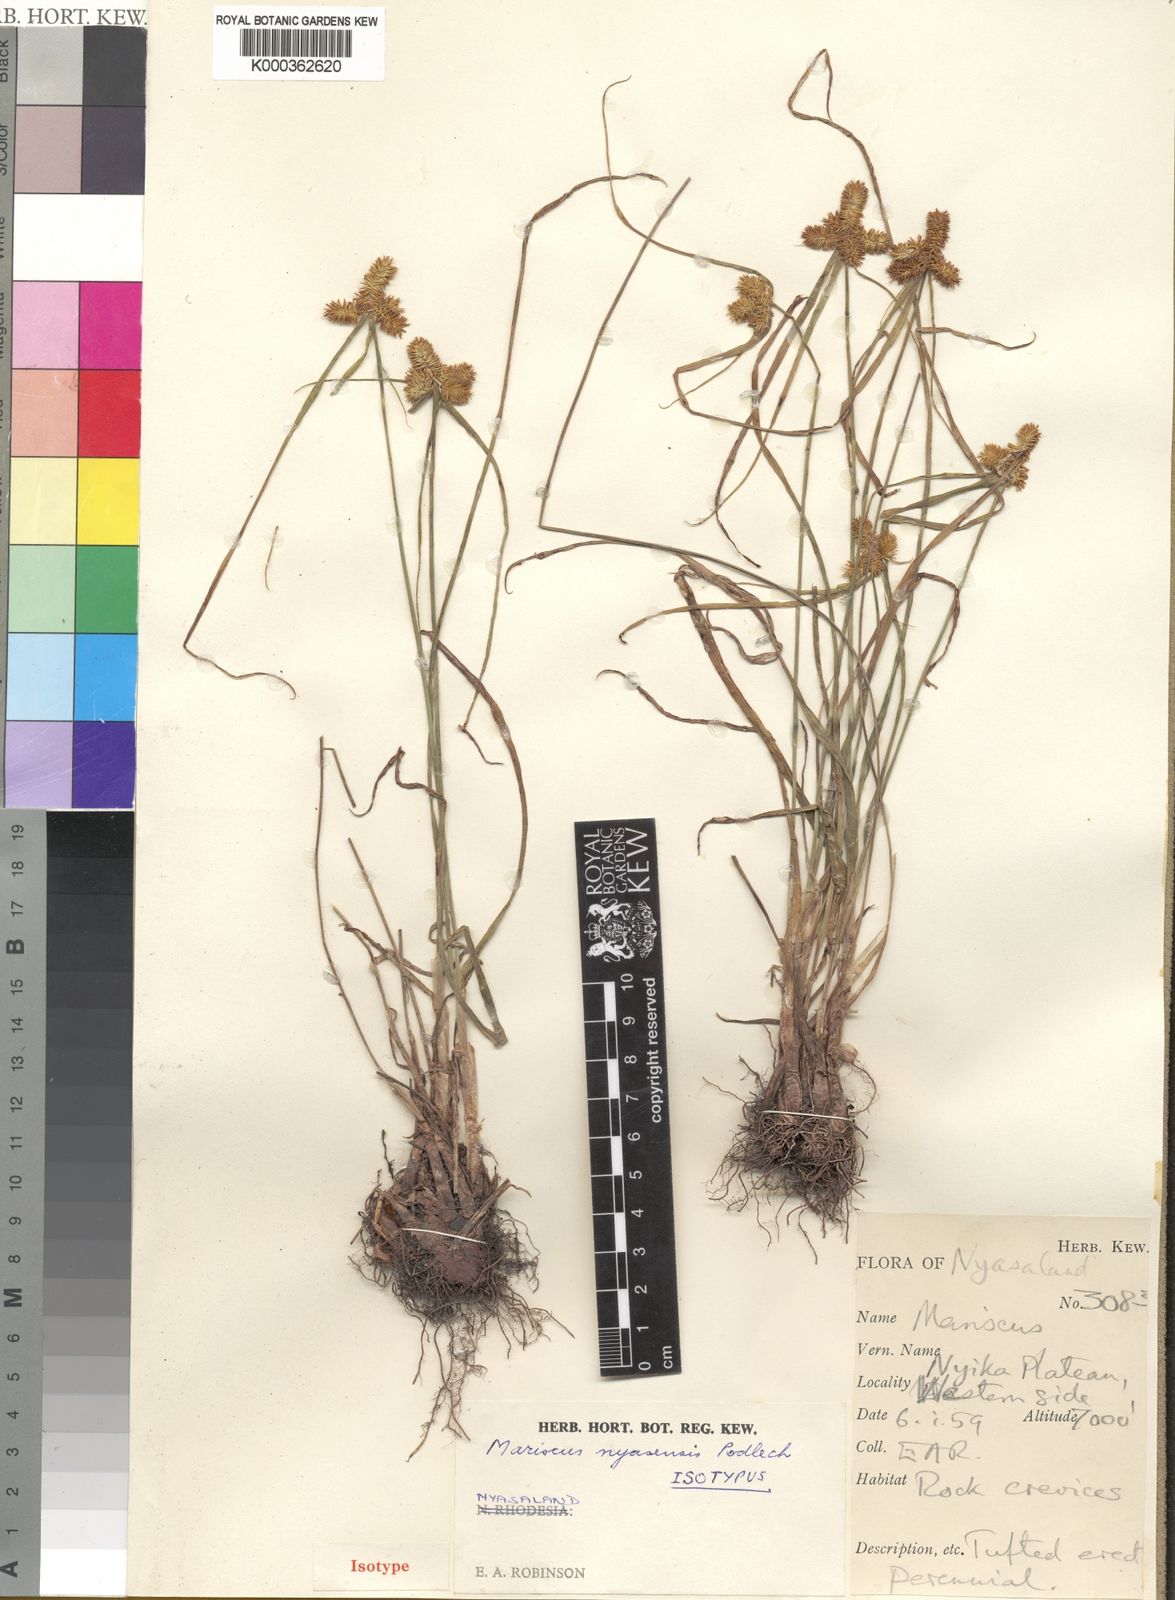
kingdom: Plantae
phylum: Tracheophyta
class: Liliopsida
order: Poales
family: Cyperaceae
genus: Cyperus
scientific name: Cyperus nyasensis
